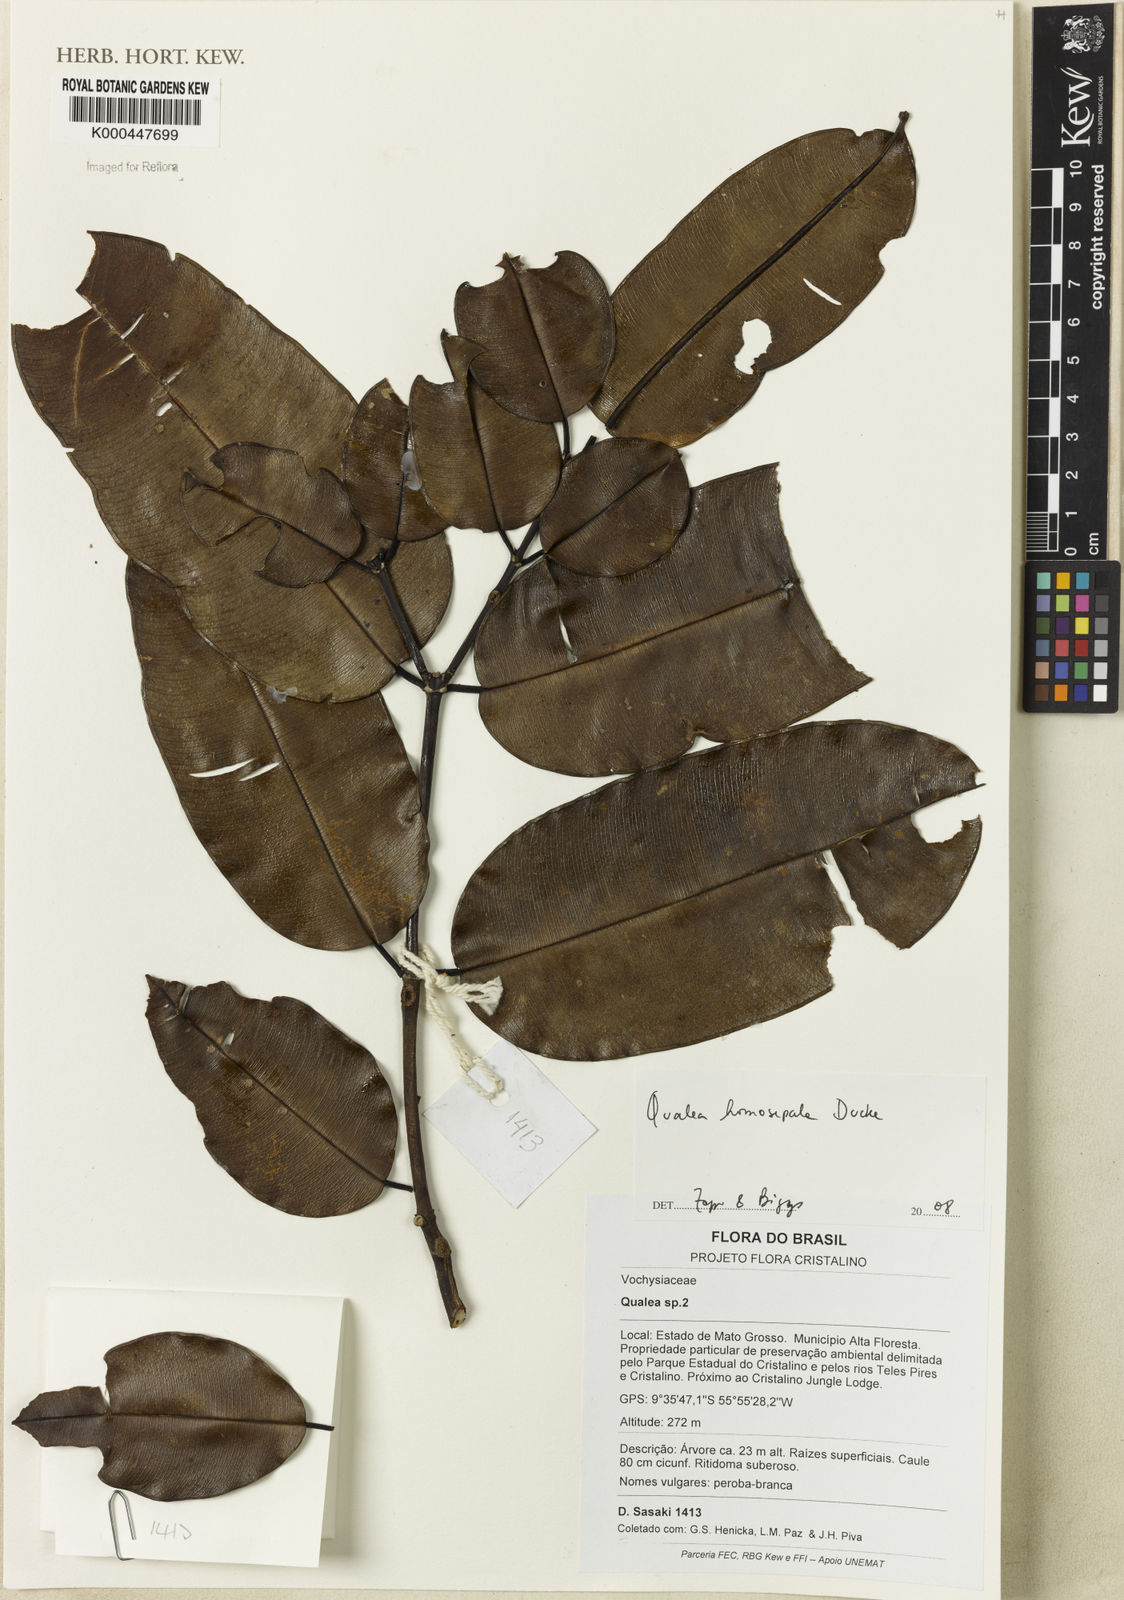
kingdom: Plantae
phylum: Tracheophyta
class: Magnoliopsida
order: Myrtales
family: Vochysiaceae
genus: Qualea
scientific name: Qualea homosepala
